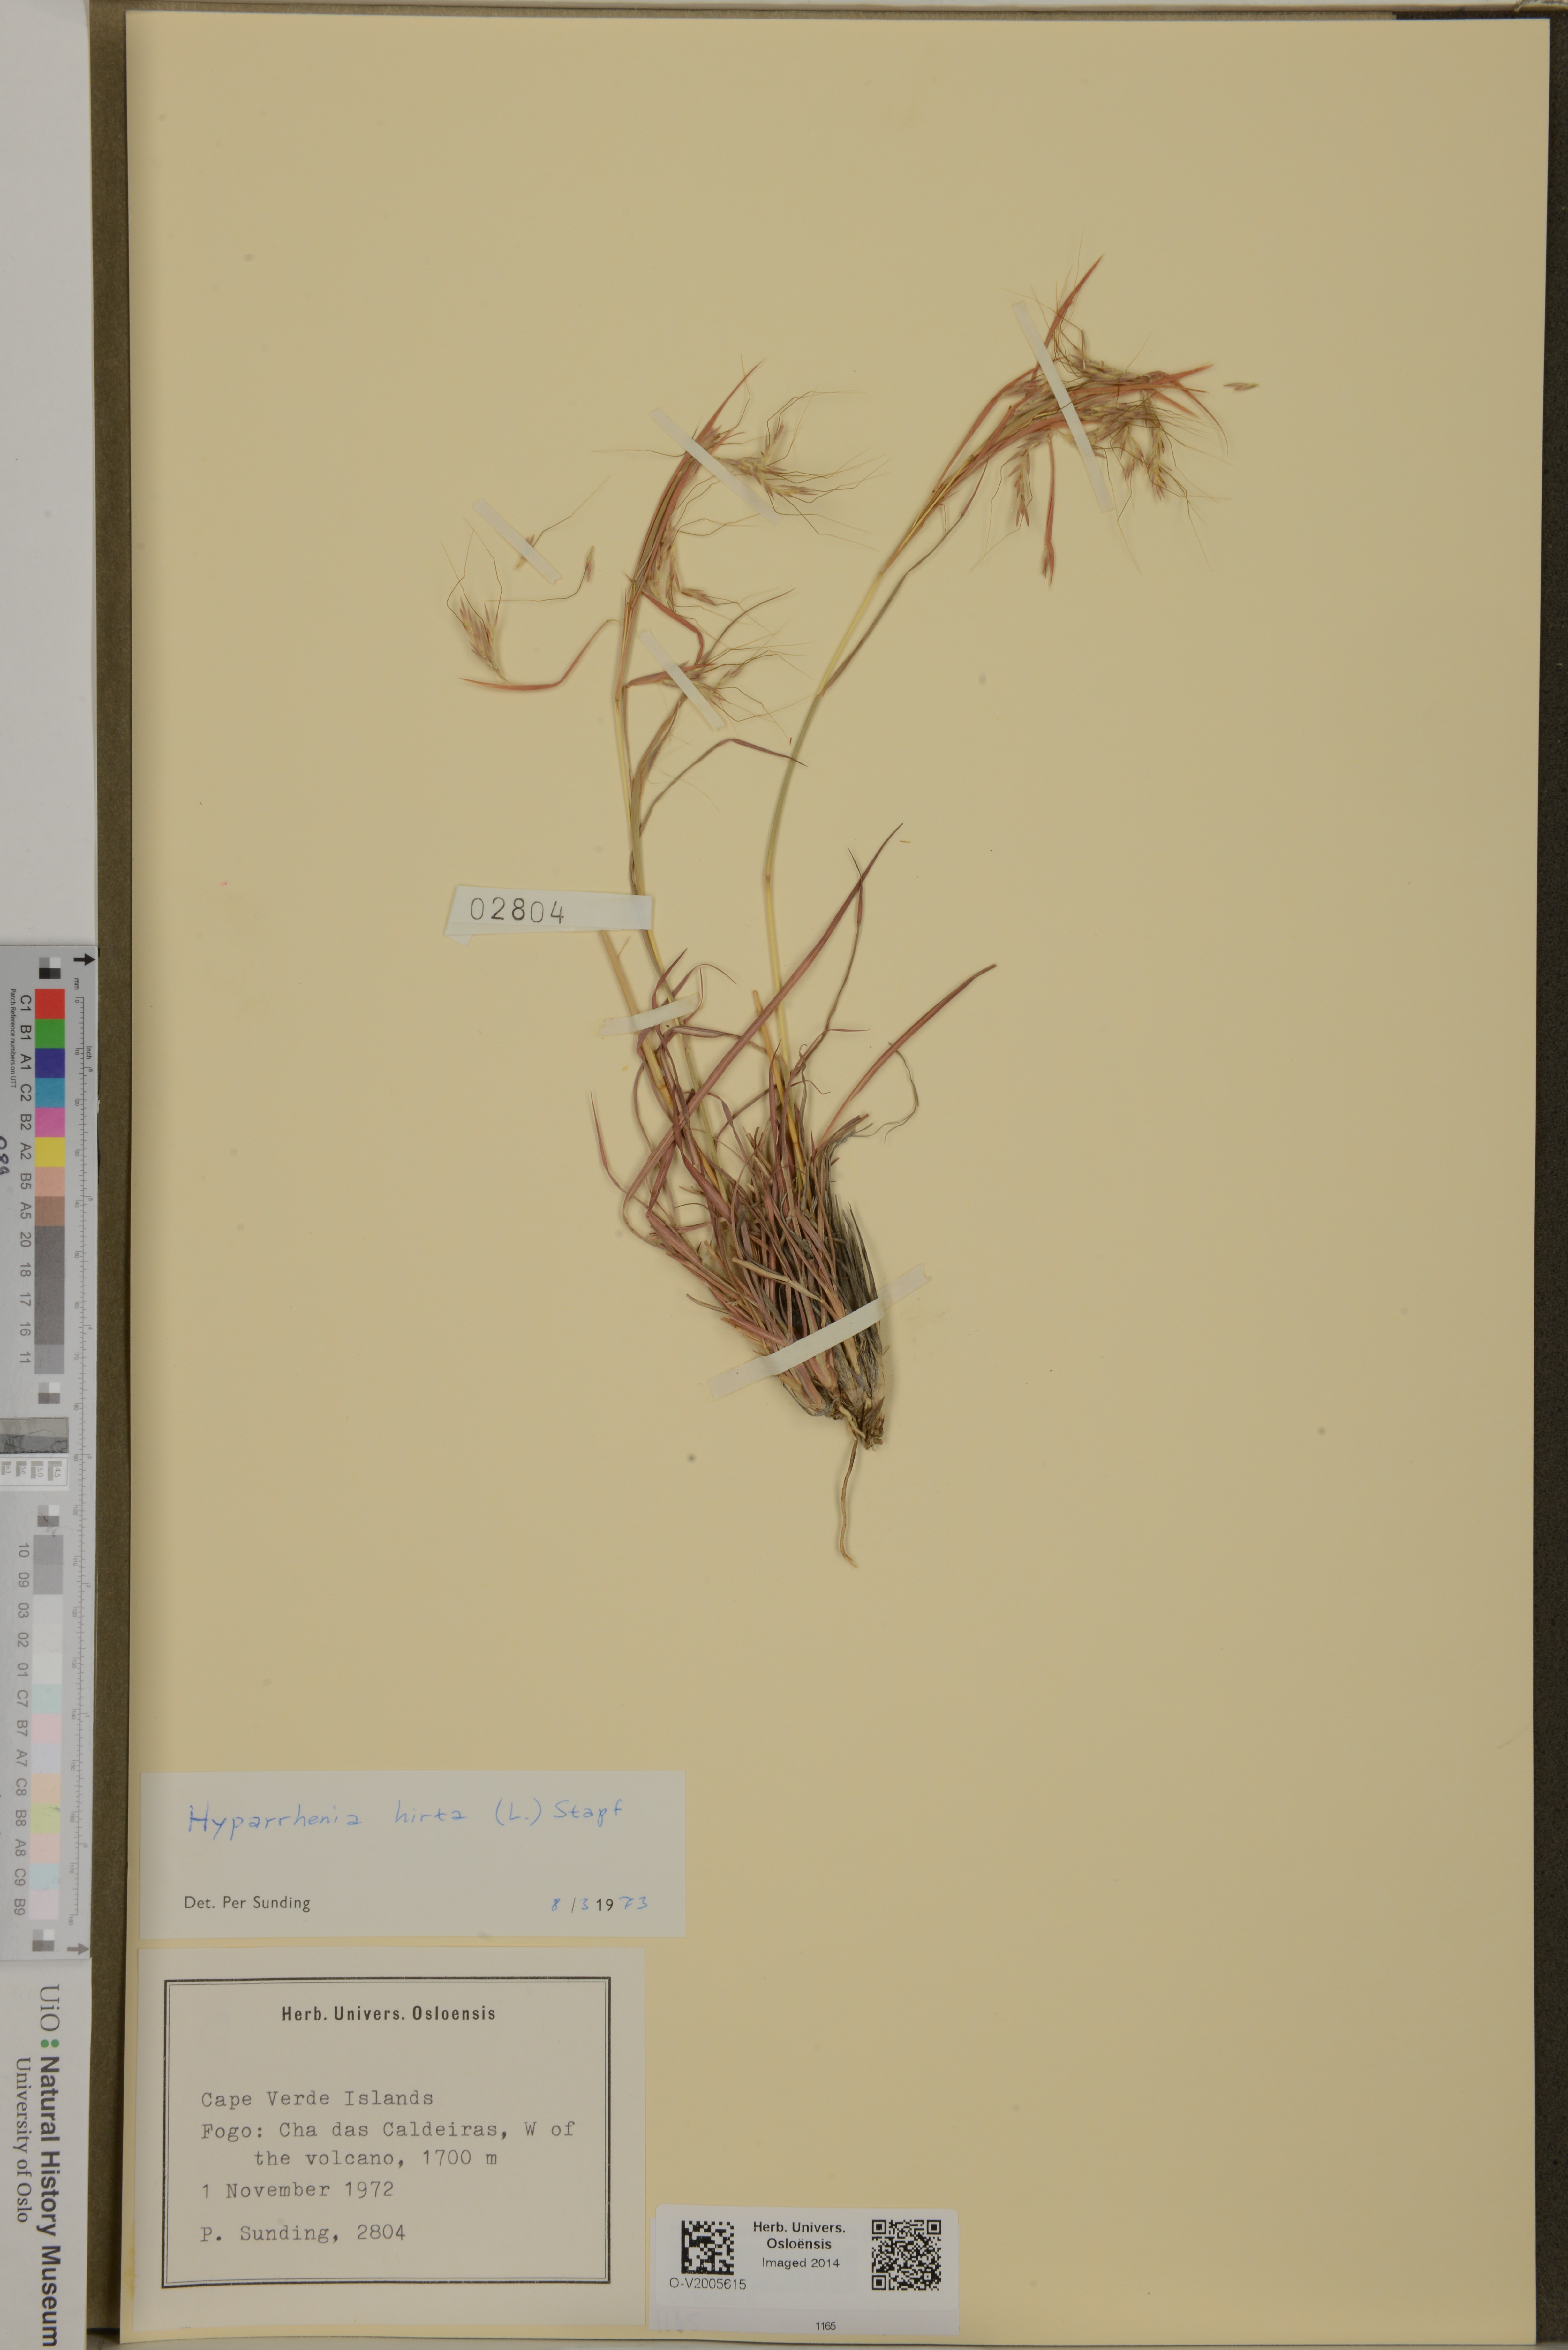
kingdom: Plantae
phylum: Tracheophyta
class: Liliopsida
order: Poales
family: Poaceae
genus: Hyparrhenia
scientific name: Hyparrhenia hirta
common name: Thatching grass
